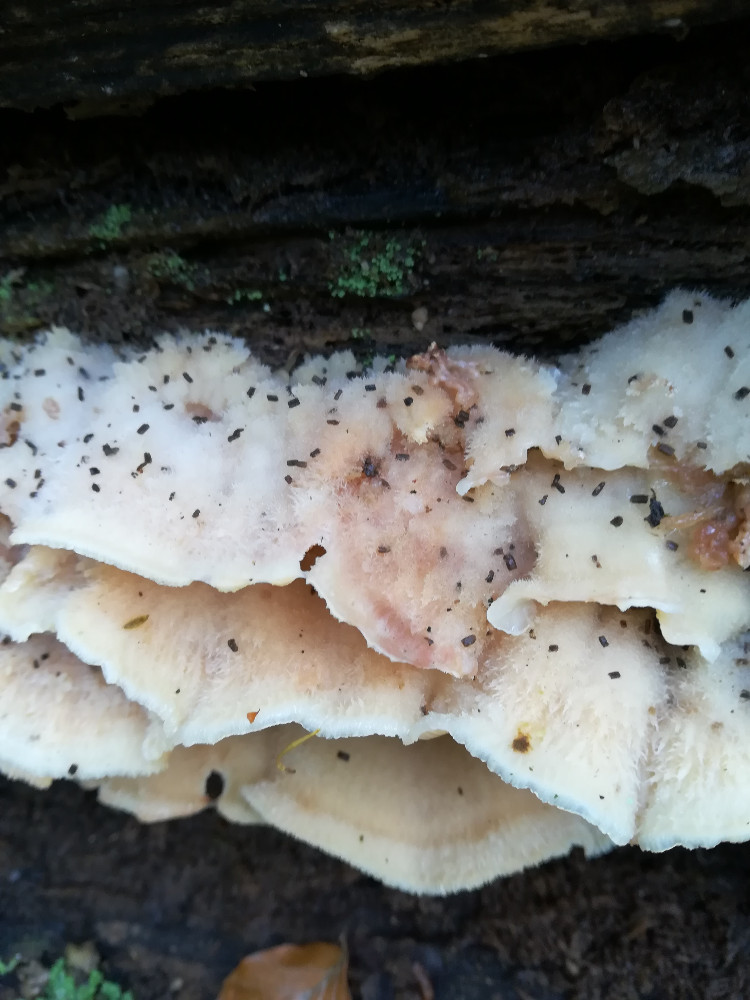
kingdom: Fungi
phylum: Basidiomycota
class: Agaricomycetes
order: Polyporales
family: Meruliaceae
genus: Phlebia
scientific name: Phlebia tremellosa
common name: bævrende åresvamp
